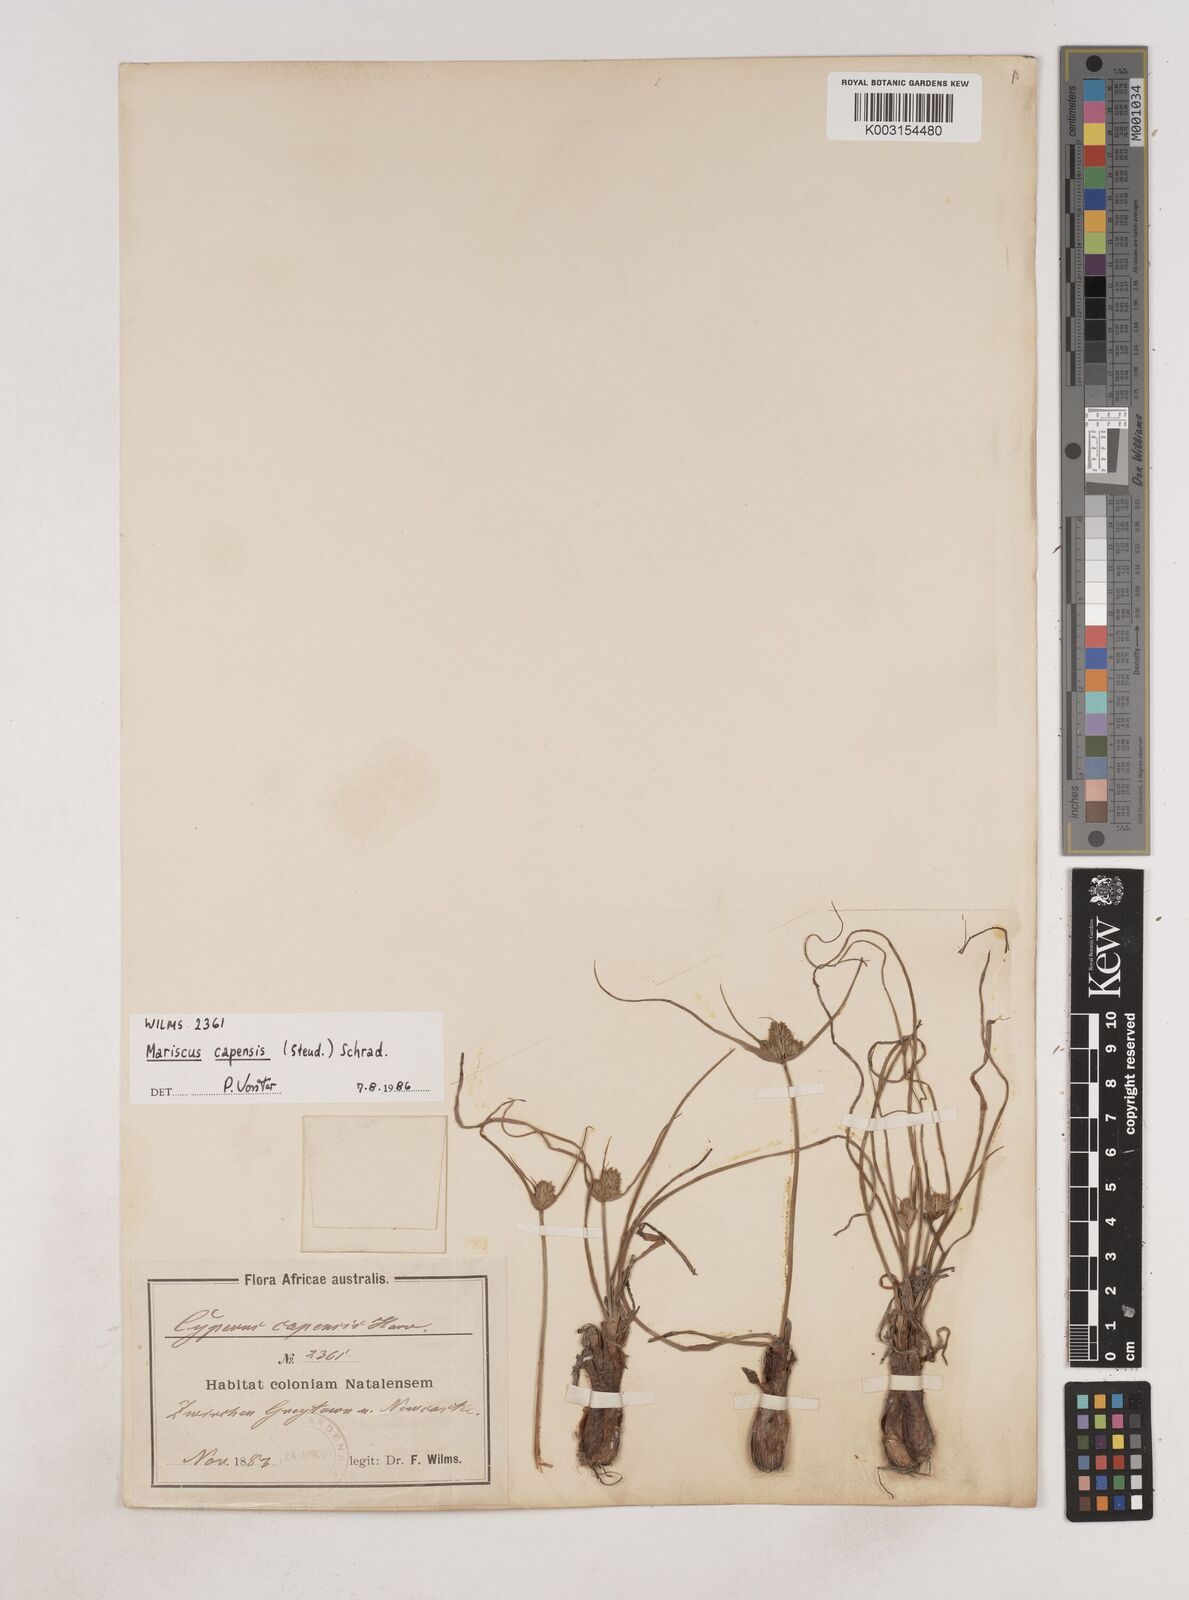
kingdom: Plantae
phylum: Tracheophyta
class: Liliopsida
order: Poales
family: Cyperaceae
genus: Cyperus
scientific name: Cyperus
